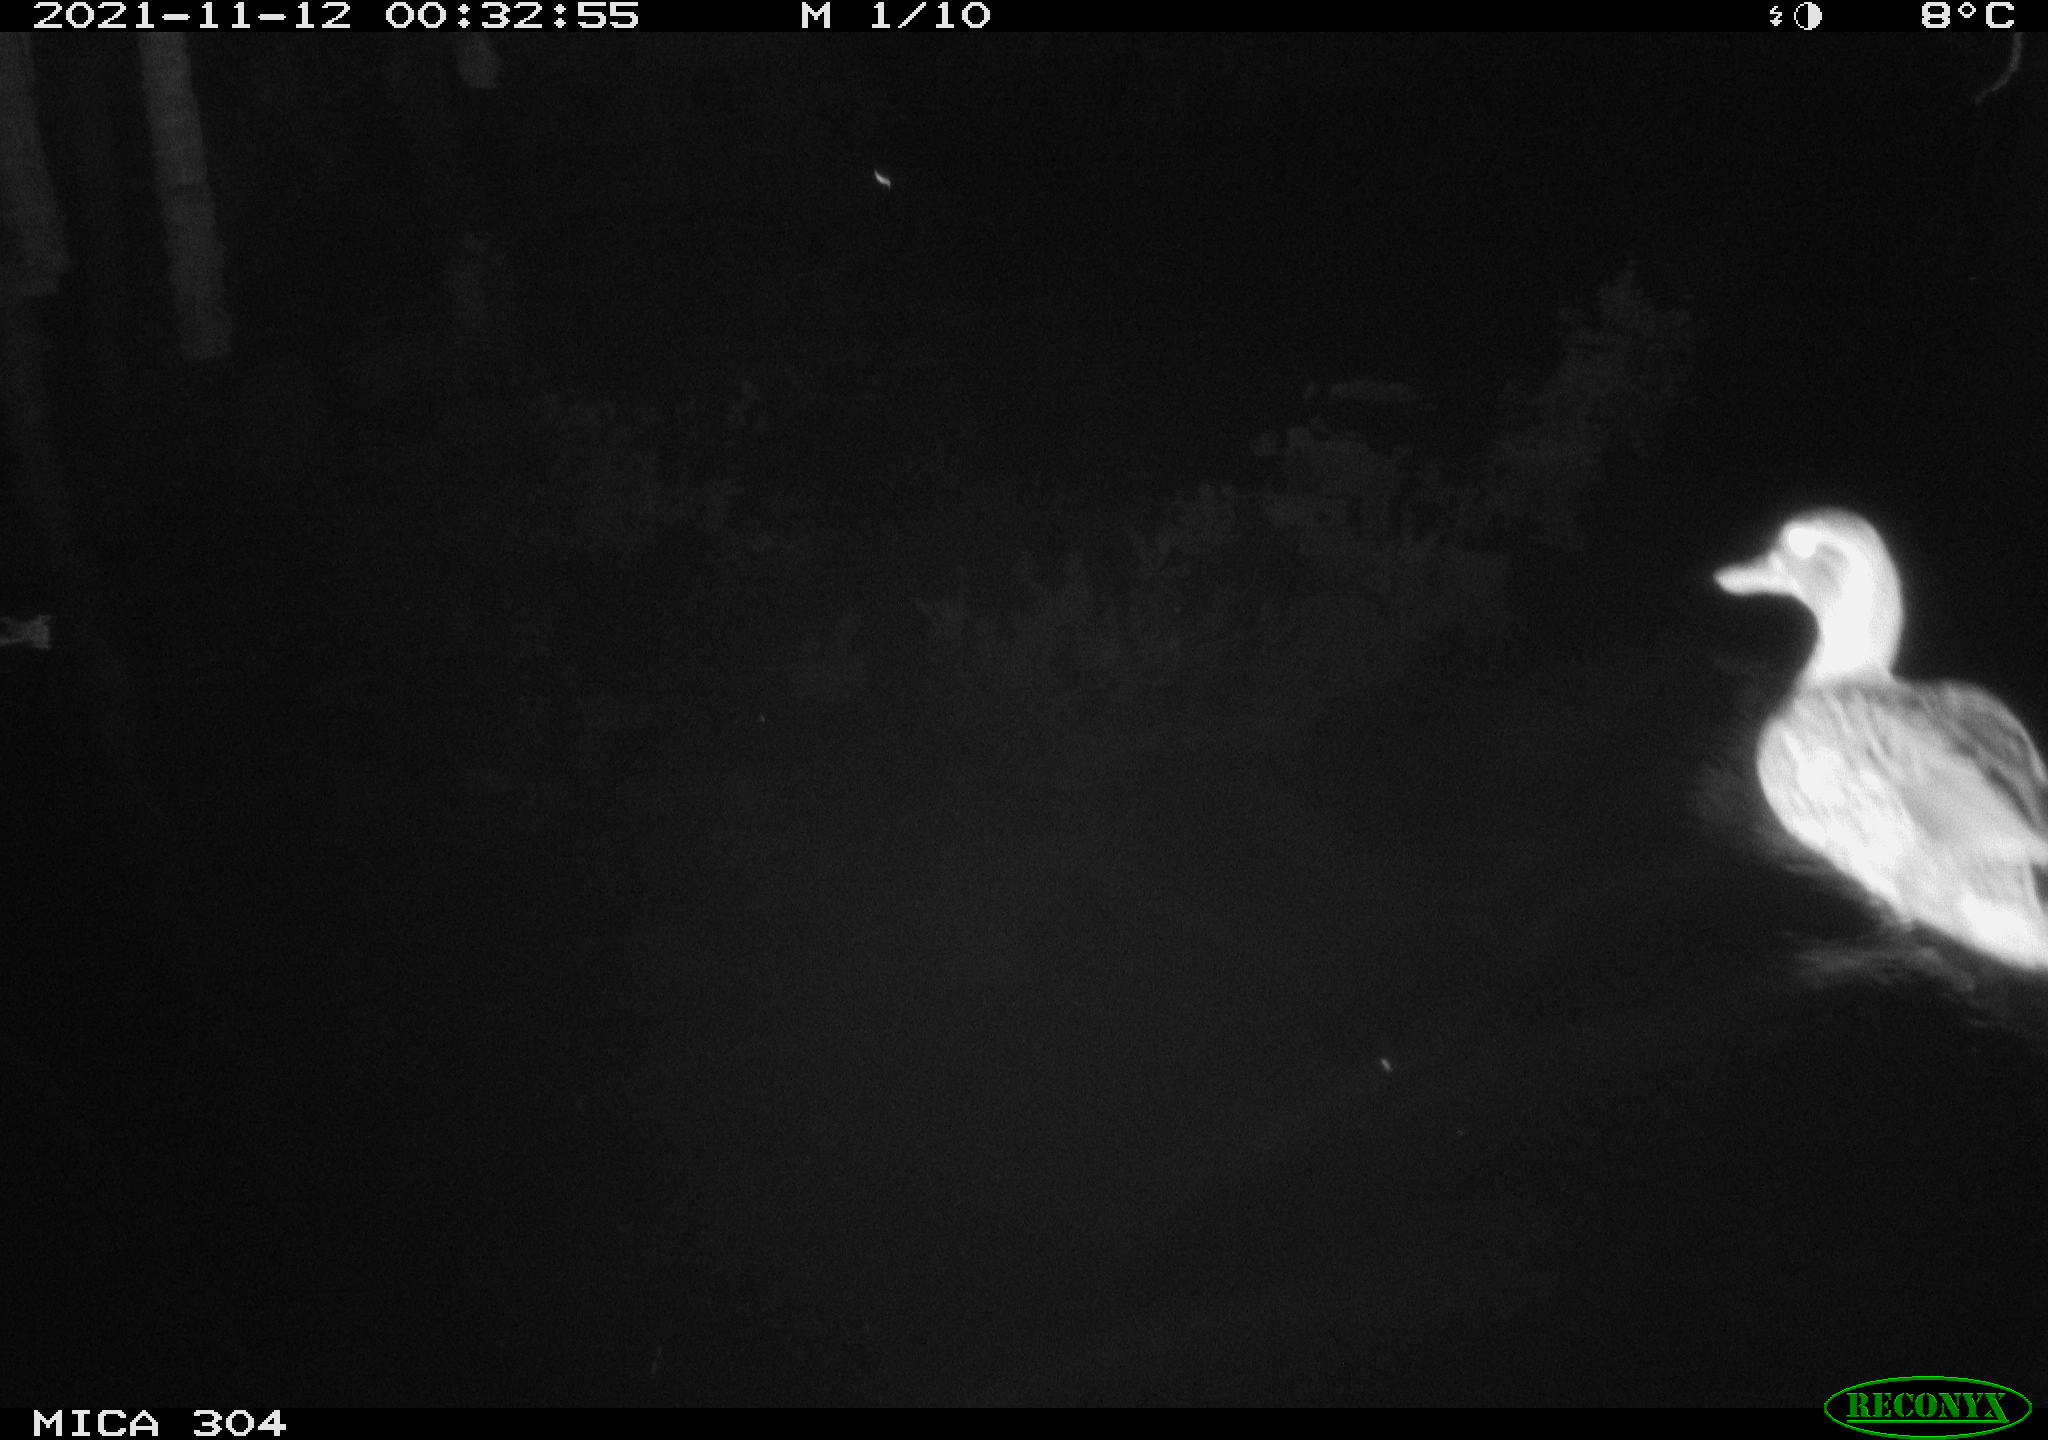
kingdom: Animalia
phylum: Chordata
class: Aves
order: Anseriformes
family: Anatidae
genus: Anas
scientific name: Anas platyrhynchos
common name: Mallard
